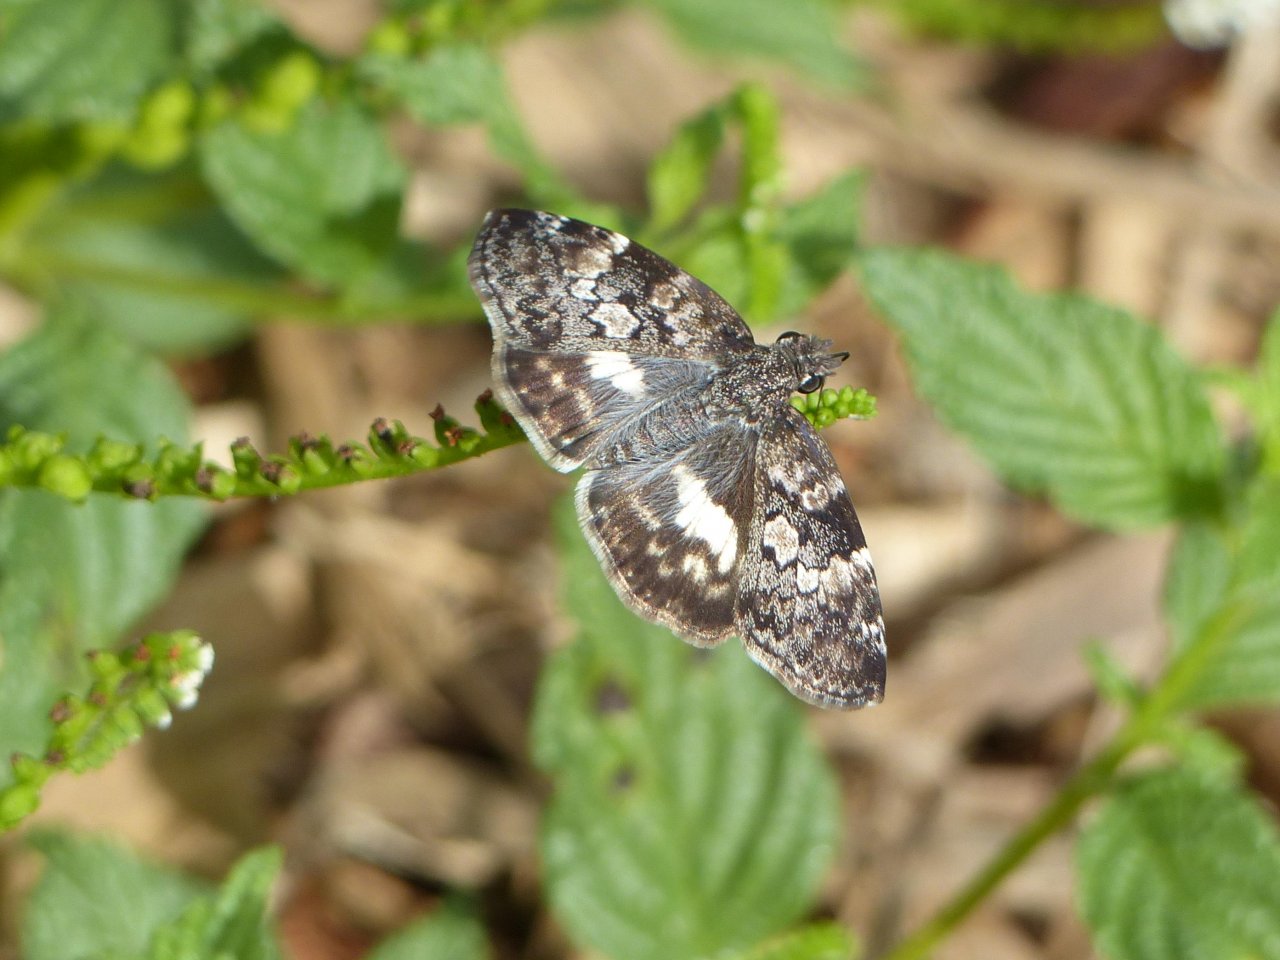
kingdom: Animalia
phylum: Arthropoda
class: Insecta
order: Lepidoptera
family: Hesperiidae
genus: Chiomara
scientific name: Chiomara asychis
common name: White-patched Skipper
